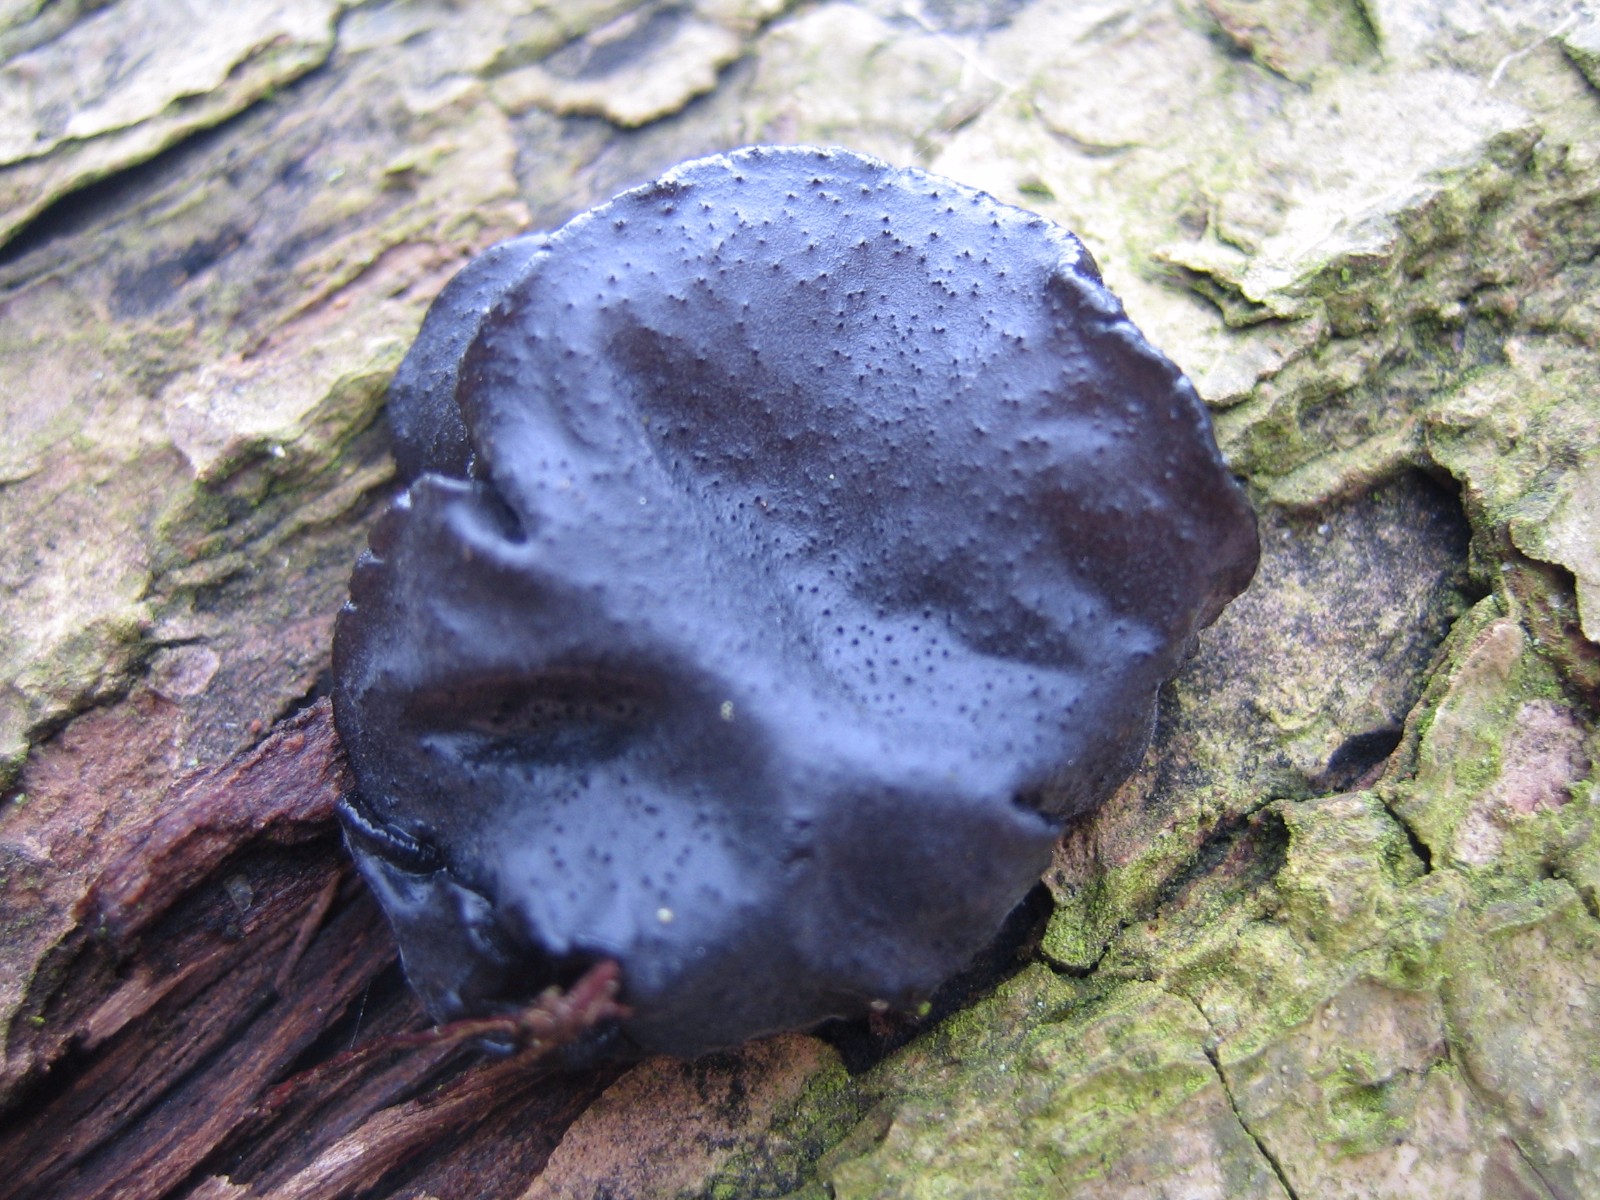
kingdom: Fungi
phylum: Basidiomycota
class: Agaricomycetes
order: Auriculariales
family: Auriculariaceae
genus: Exidia
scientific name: Exidia glandulosa
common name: ege-bævretop
